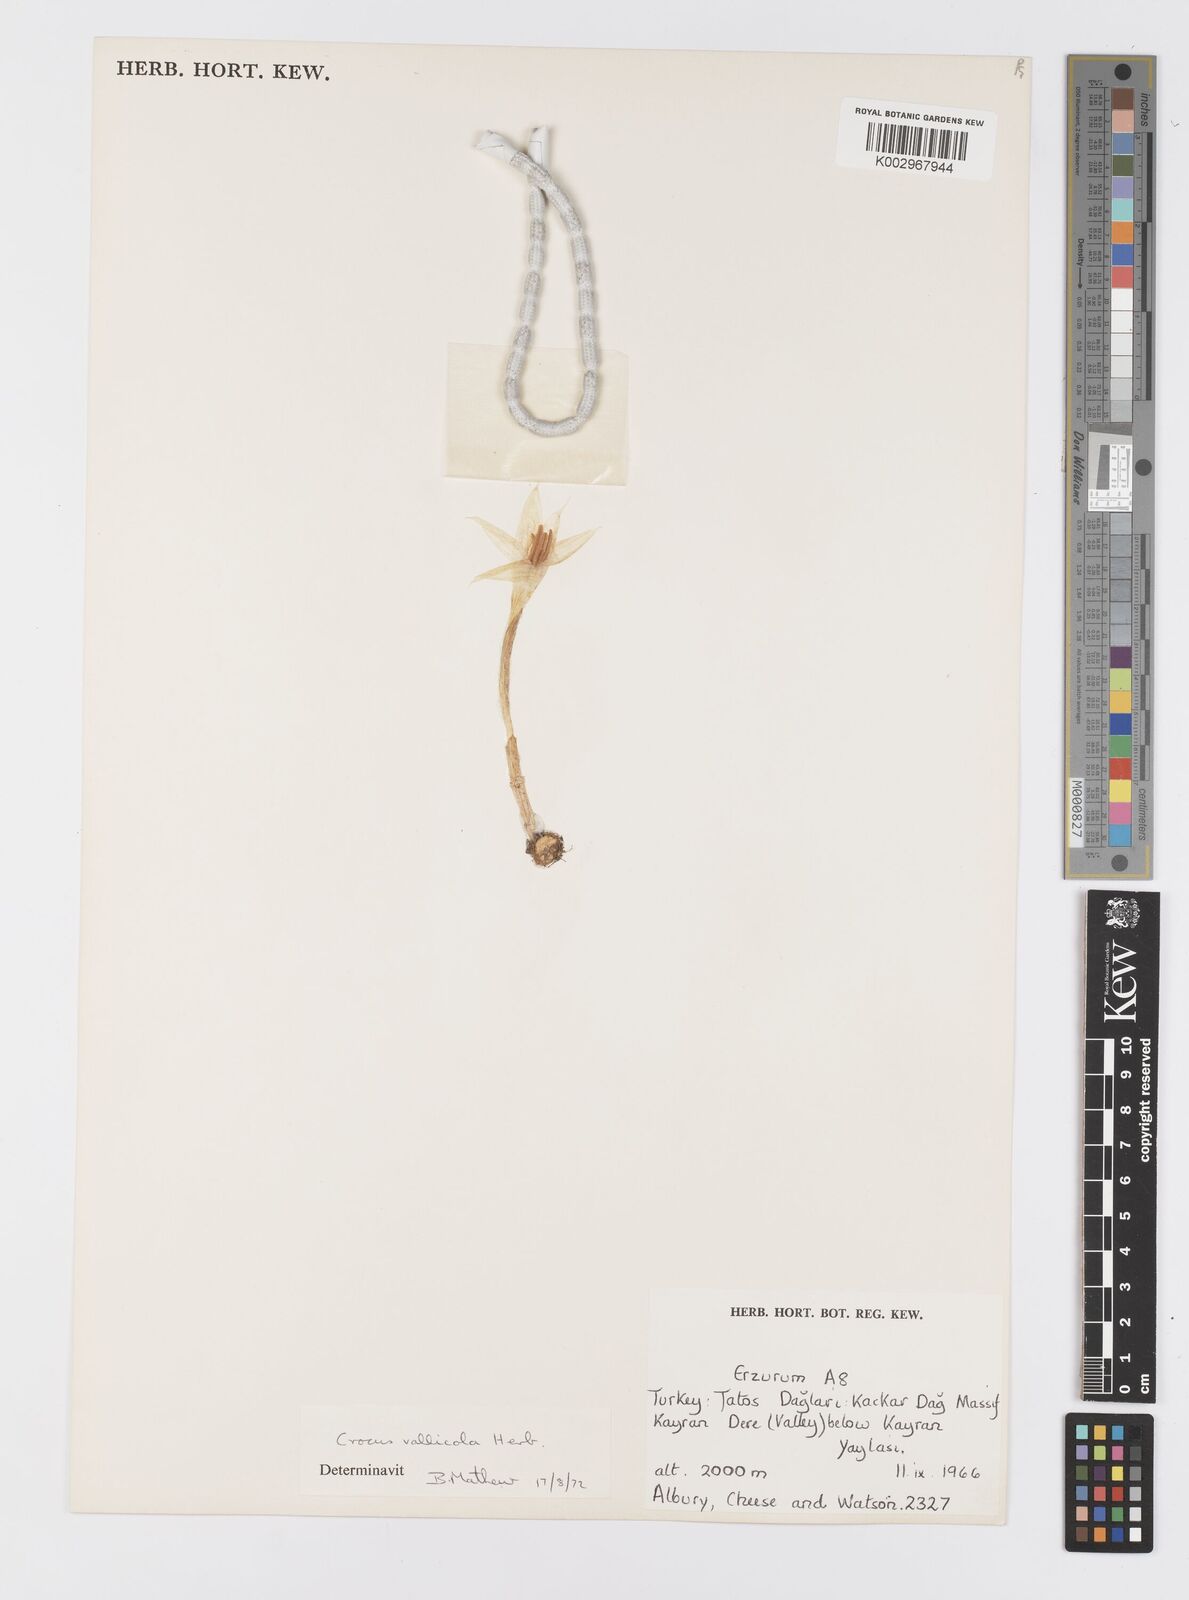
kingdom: Plantae
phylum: Tracheophyta
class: Liliopsida
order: Asparagales
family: Iridaceae
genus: Crocus
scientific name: Crocus vallicola
